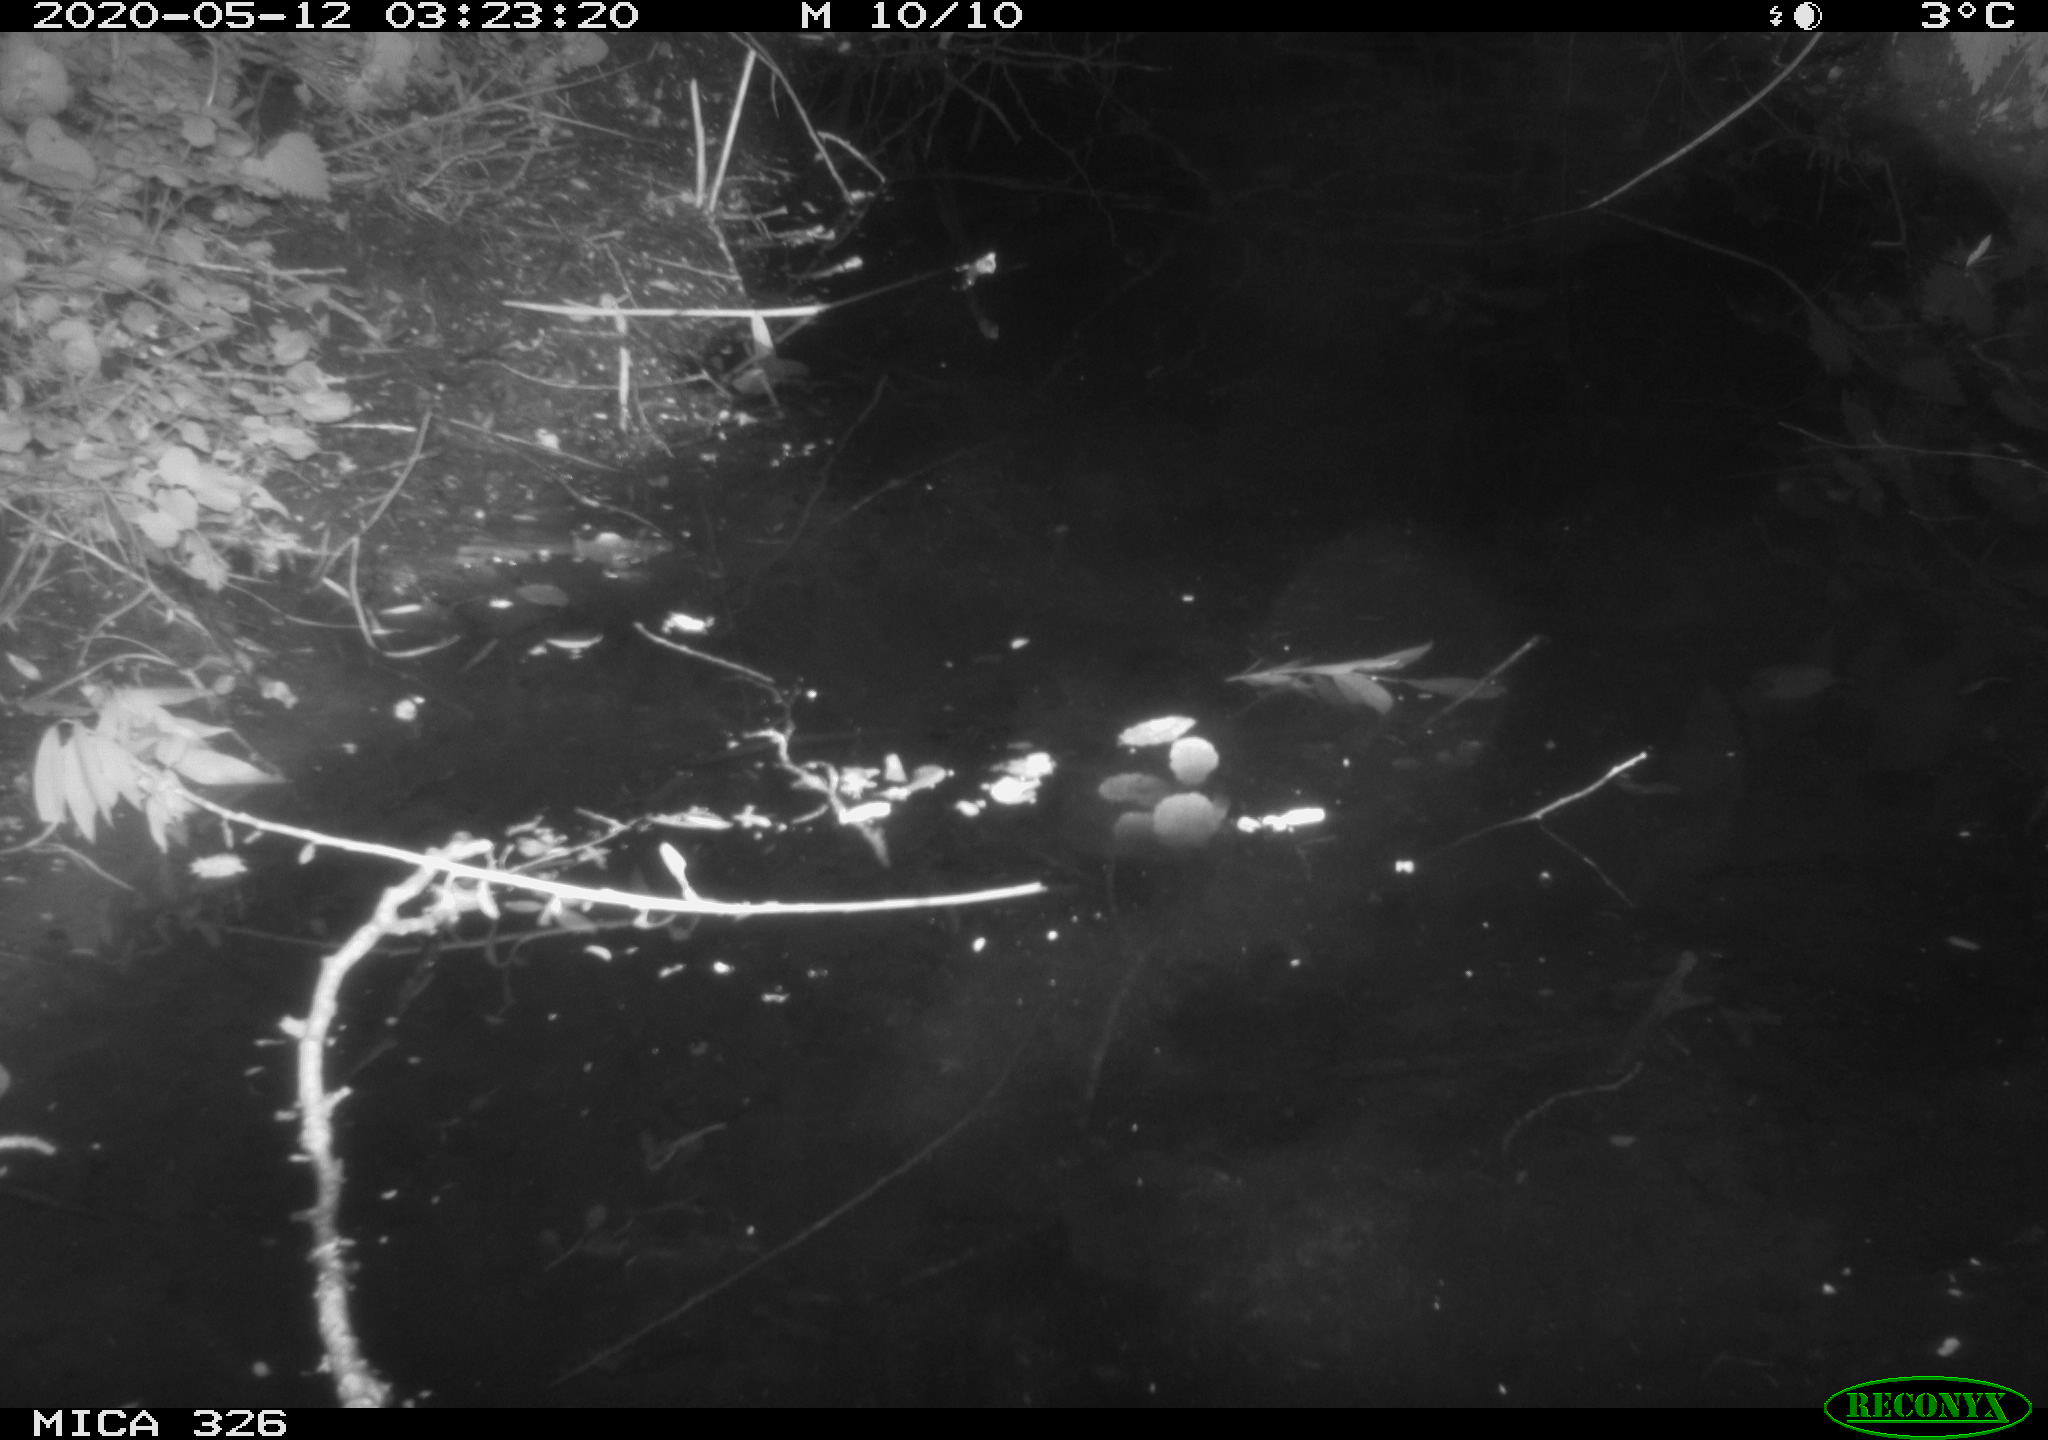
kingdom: Animalia
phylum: Chordata
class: Mammalia
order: Rodentia
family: Myocastoridae
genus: Myocastor
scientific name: Myocastor coypus
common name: Coypu
